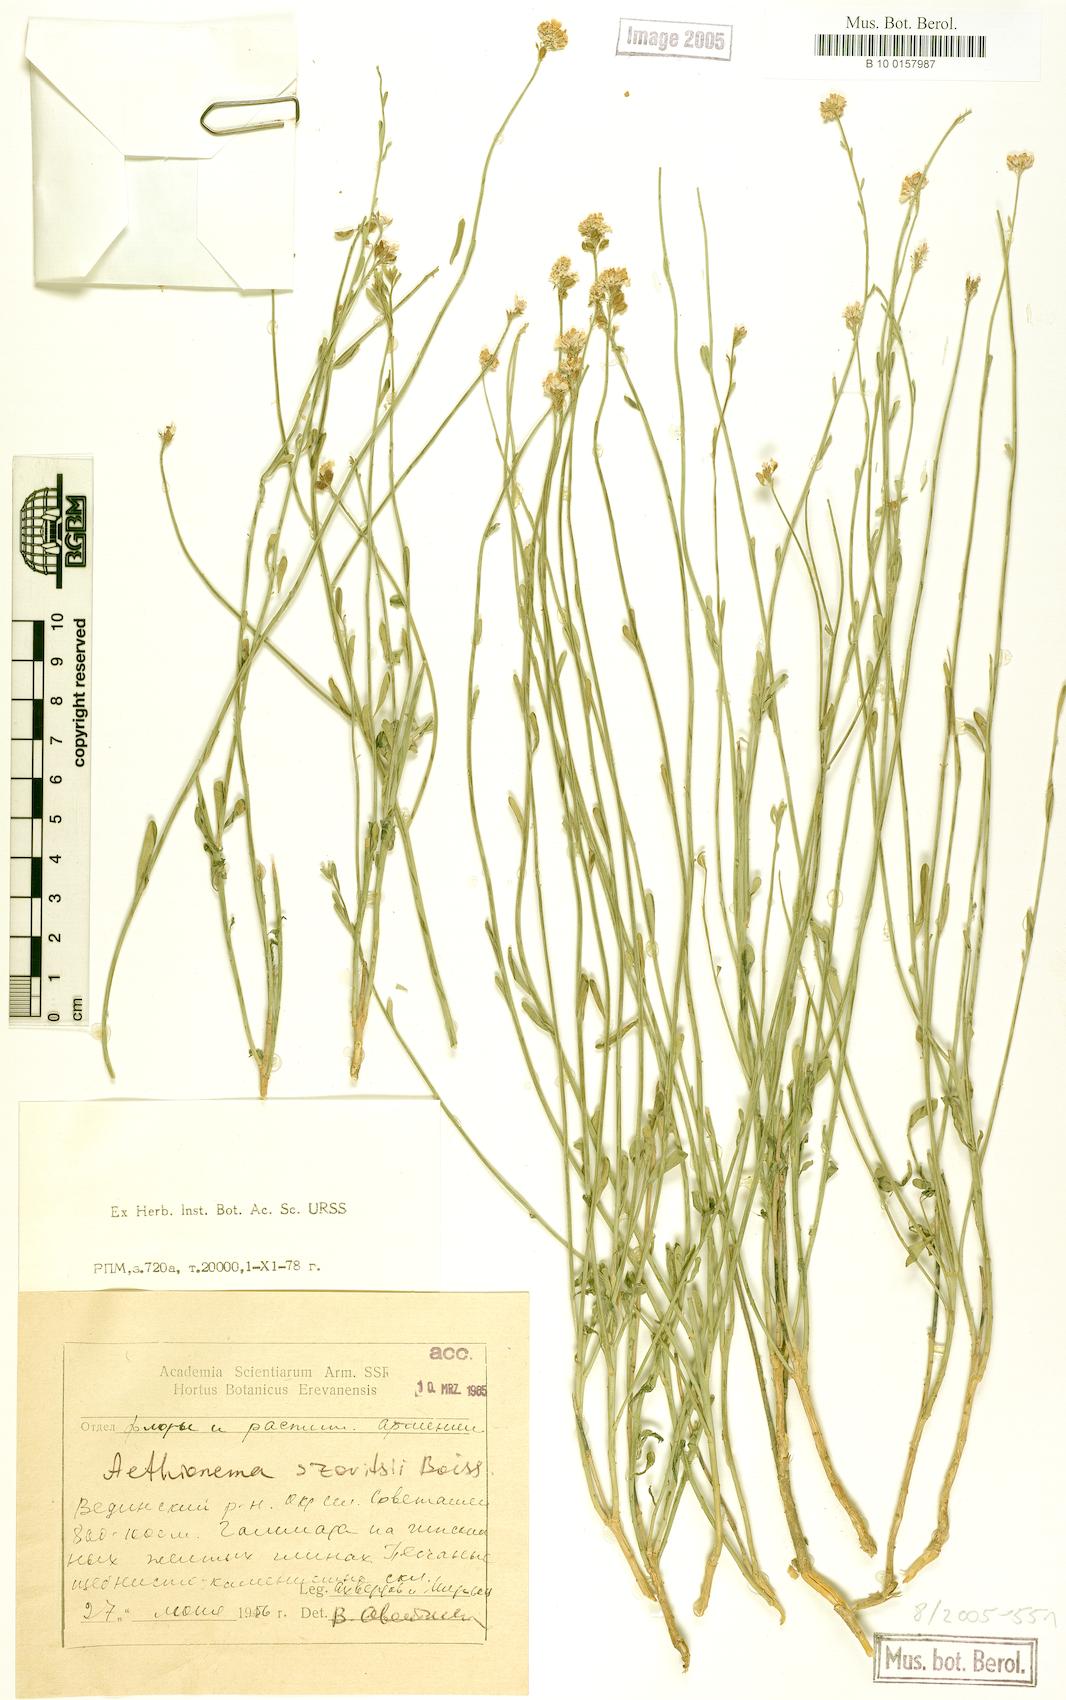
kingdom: Plantae
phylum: Tracheophyta
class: Magnoliopsida
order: Brassicales
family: Brassicaceae
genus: Aethionema
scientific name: Aethionema virgatum
